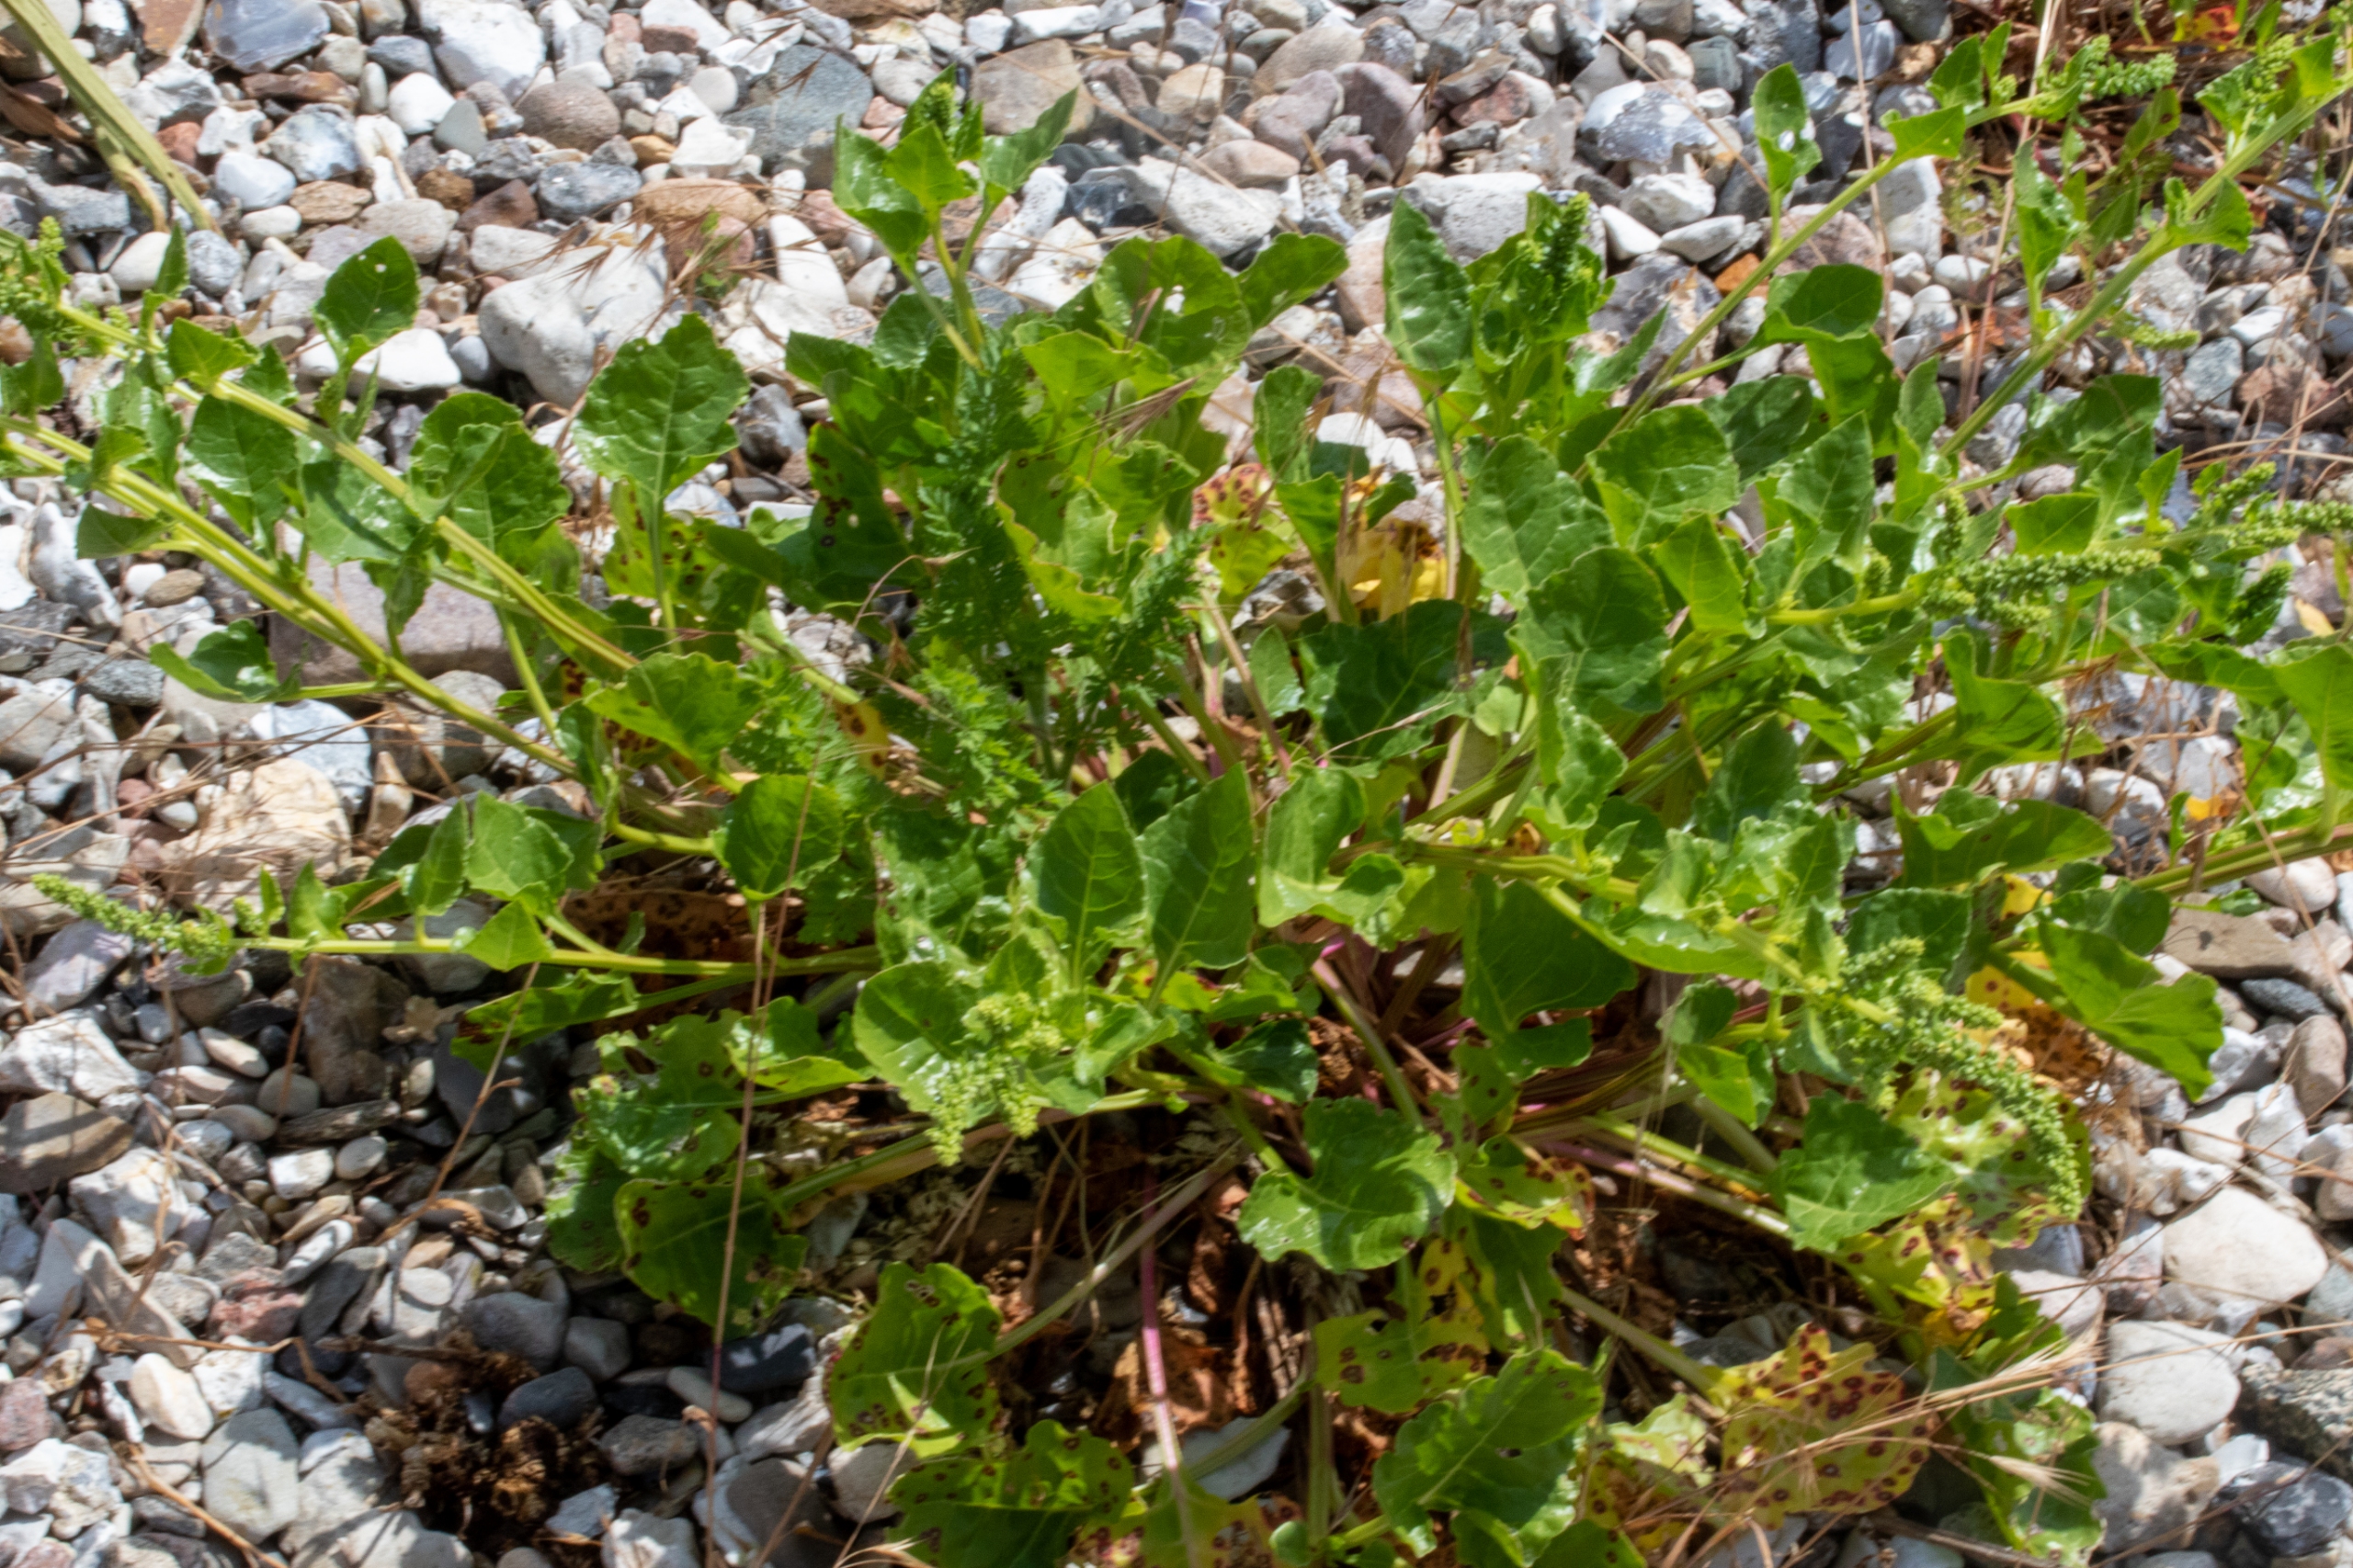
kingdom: Plantae
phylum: Tracheophyta
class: Magnoliopsida
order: Caryophyllales
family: Amaranthaceae
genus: Beta
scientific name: Beta maritima
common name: Strand-bede
